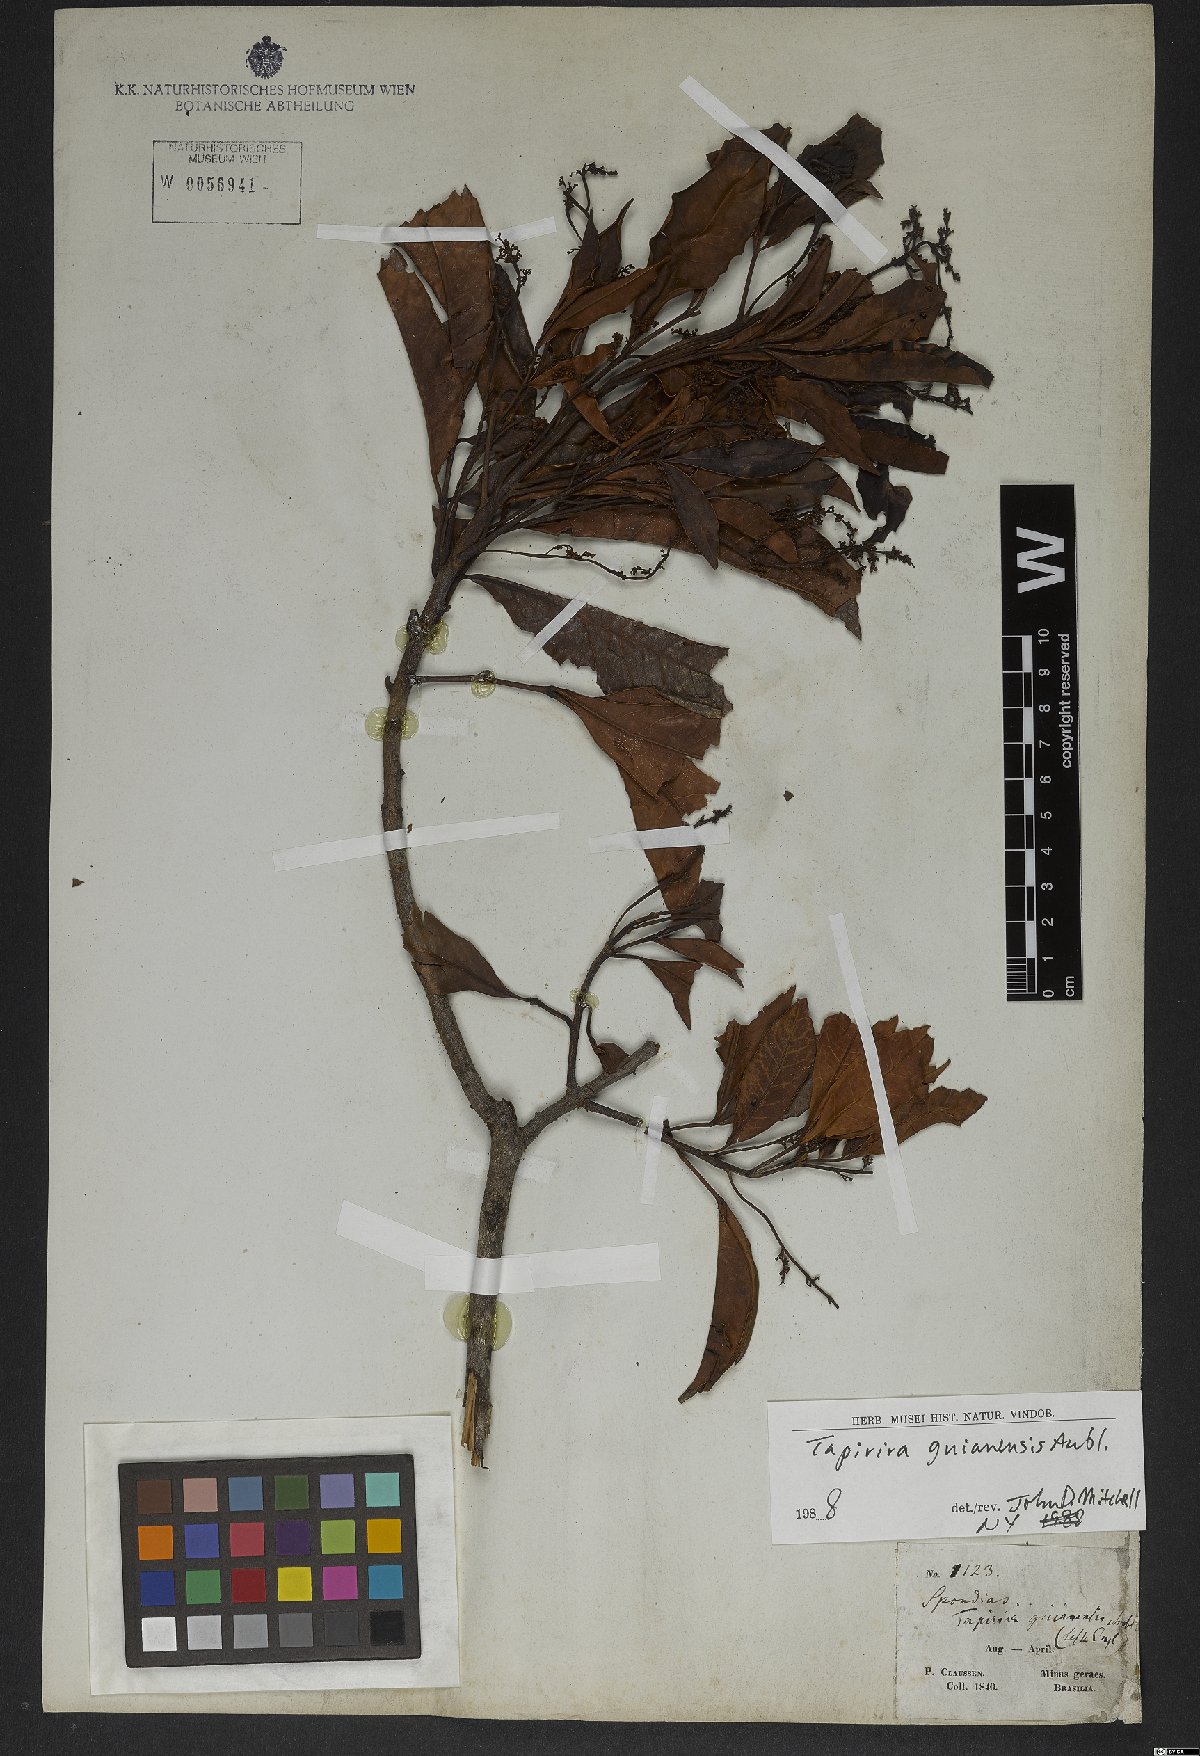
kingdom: Plantae
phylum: Tracheophyta
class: Magnoliopsida
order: Sapindales
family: Anacardiaceae
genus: Tapirira
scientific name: Tapirira guianensis
